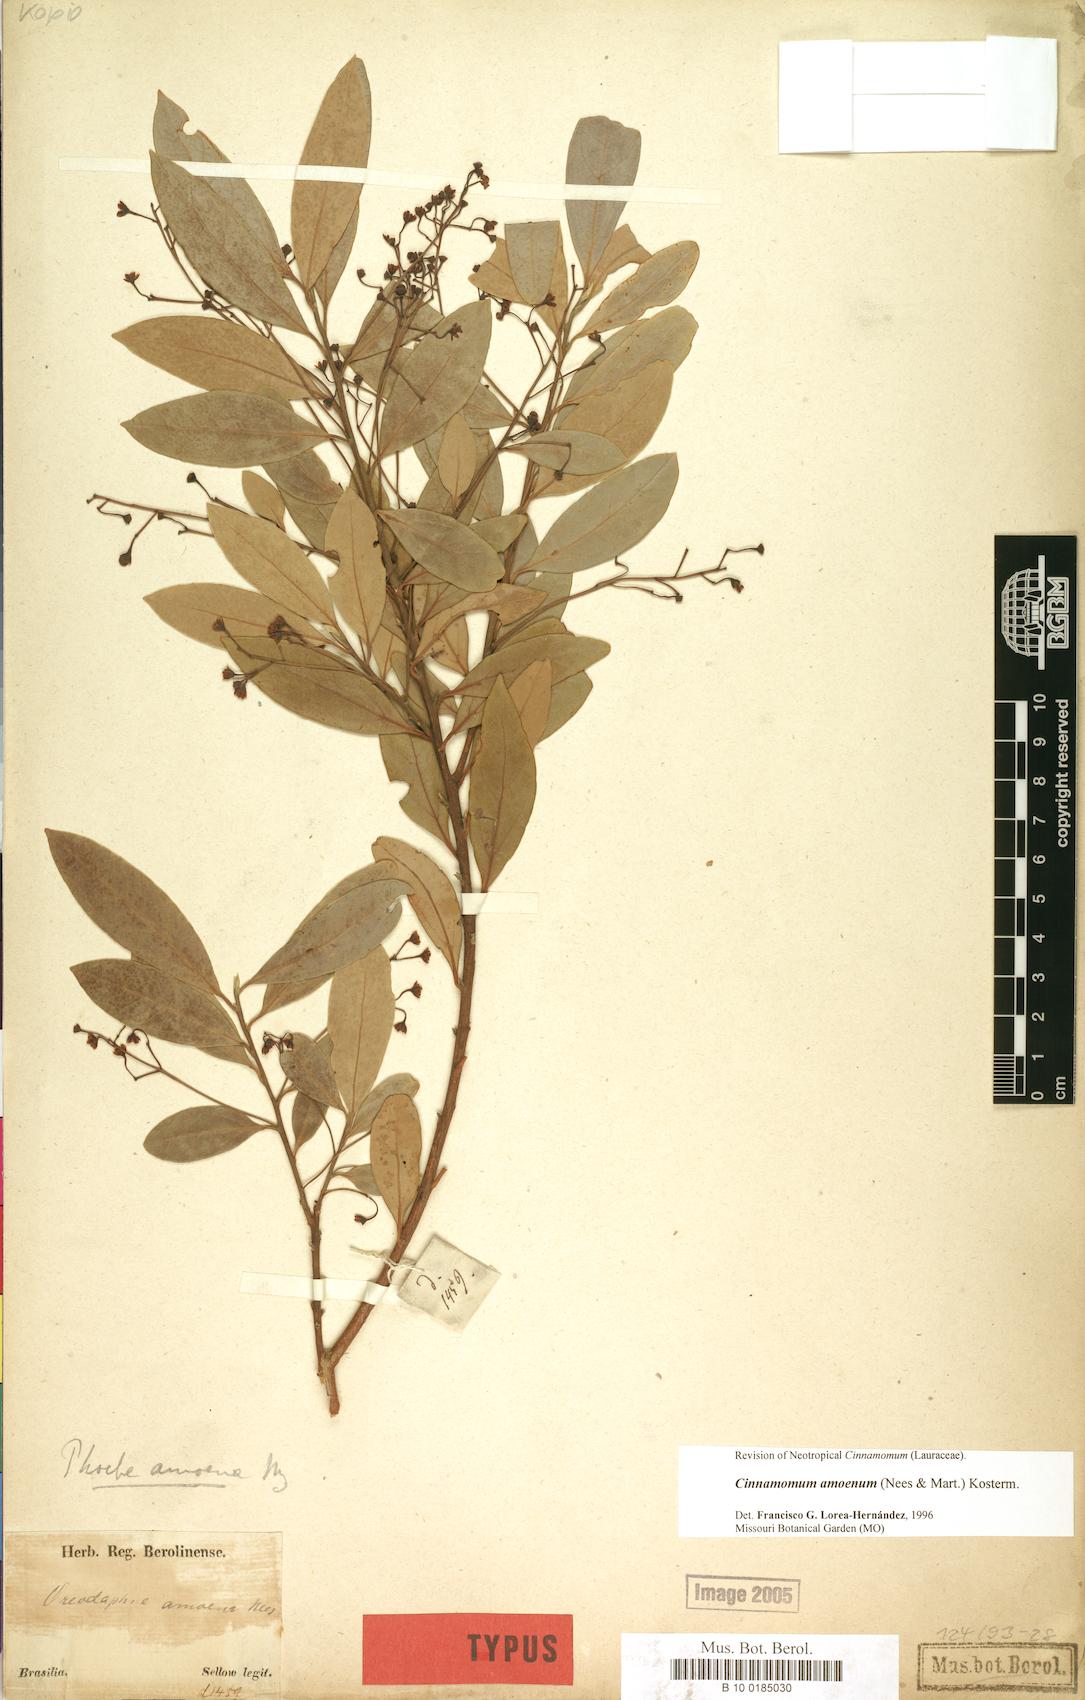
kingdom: Plantae
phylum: Tracheophyta
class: Magnoliopsida
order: Laurales
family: Lauraceae
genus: Aiouea
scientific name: Aiouea amoena
